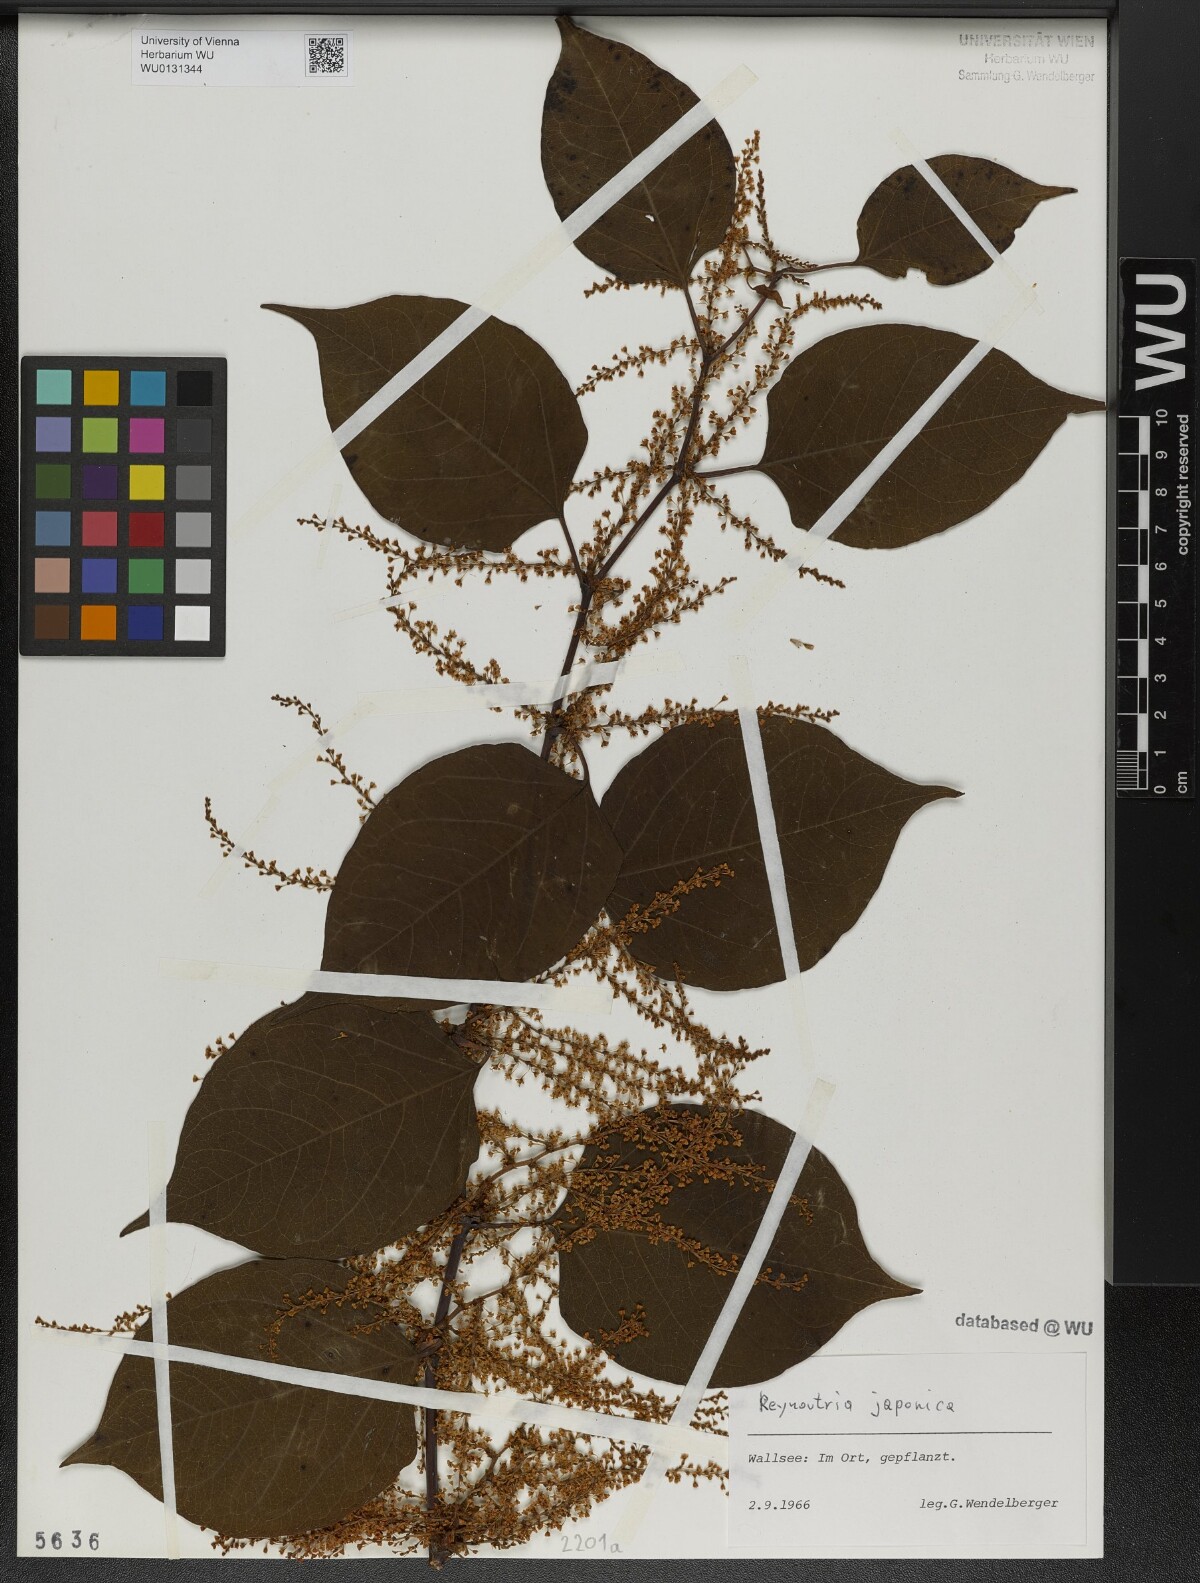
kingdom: Plantae
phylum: Tracheophyta
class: Magnoliopsida
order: Caryophyllales
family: Polygonaceae
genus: Reynoutria
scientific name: Reynoutria japonica
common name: Japanese knotweed
